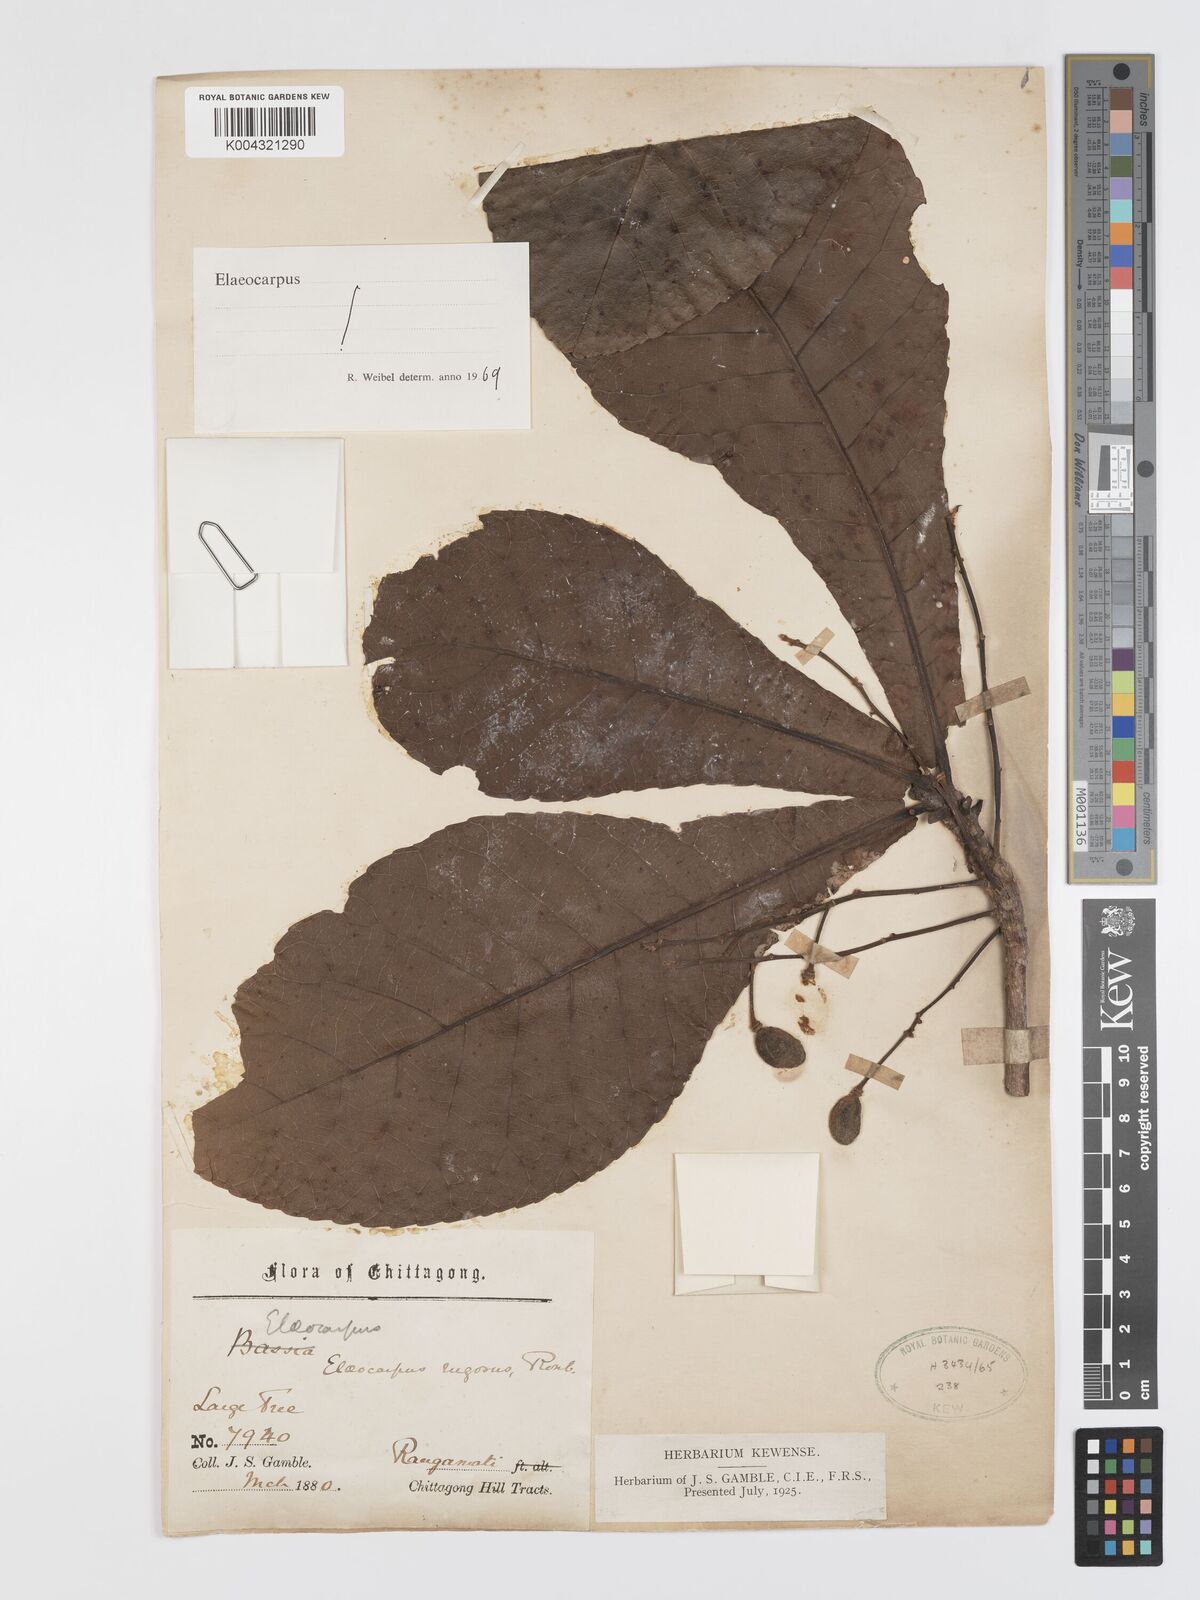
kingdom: Plantae
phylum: Tracheophyta
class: Magnoliopsida
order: Oxalidales
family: Elaeocarpaceae
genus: Elaeocarpus
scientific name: Elaeocarpus rugosus
